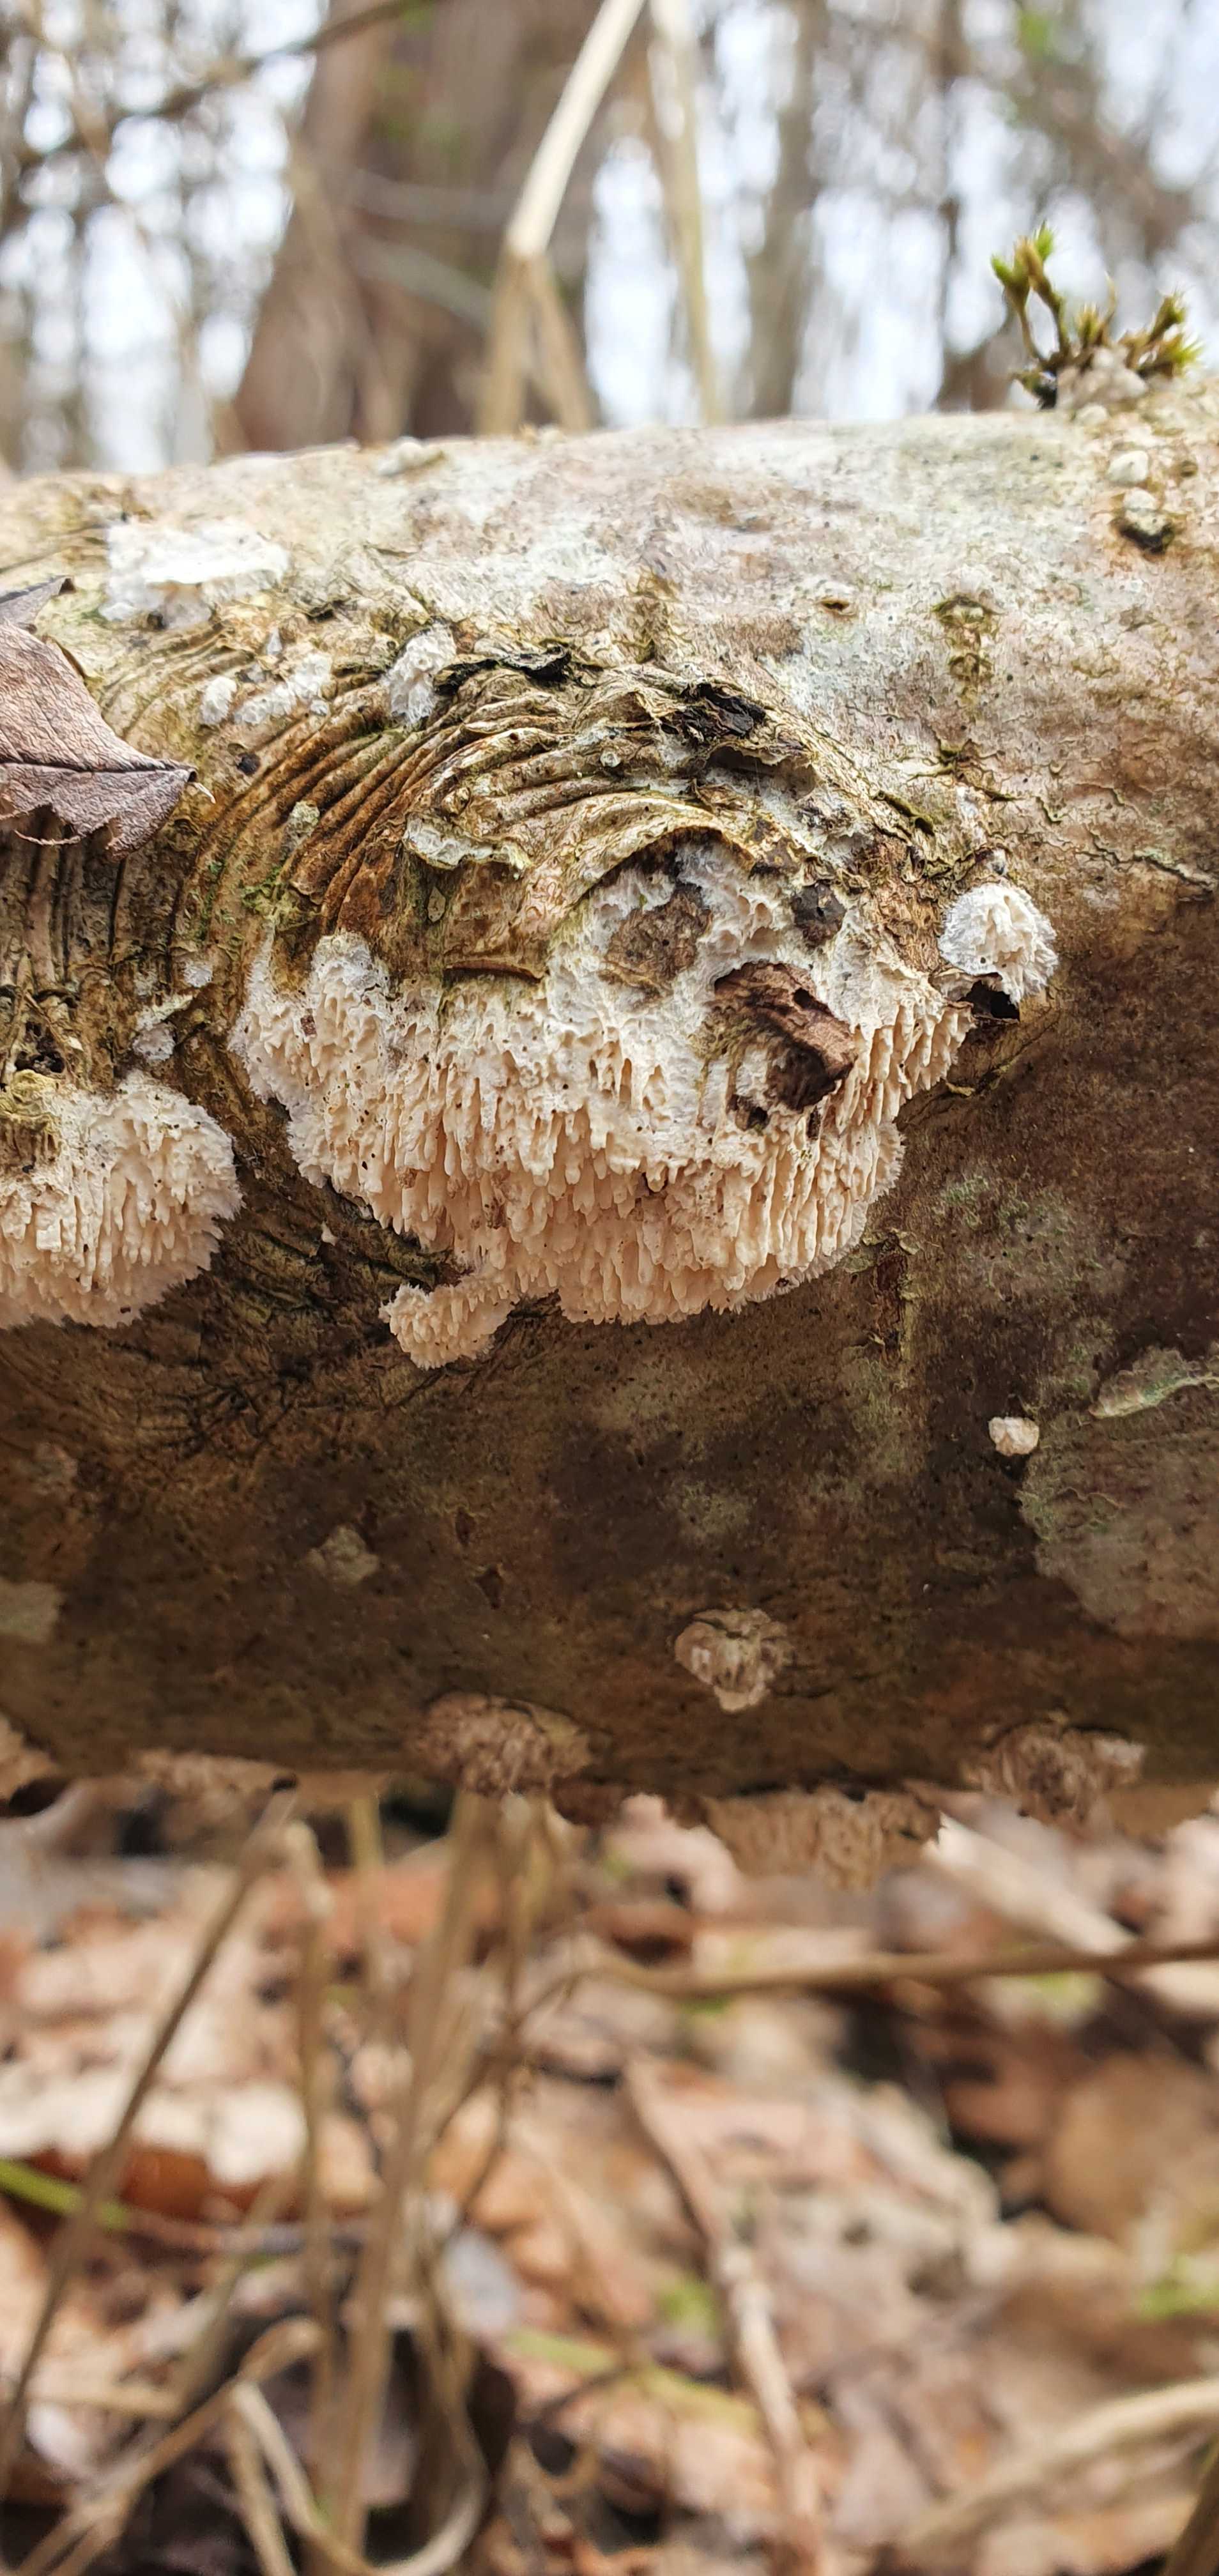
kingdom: Fungi
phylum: Basidiomycota
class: Agaricomycetes
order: Hymenochaetales
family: Schizoporaceae
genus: Xylodon
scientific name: Xylodon radula
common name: grovtandet kalkskind
